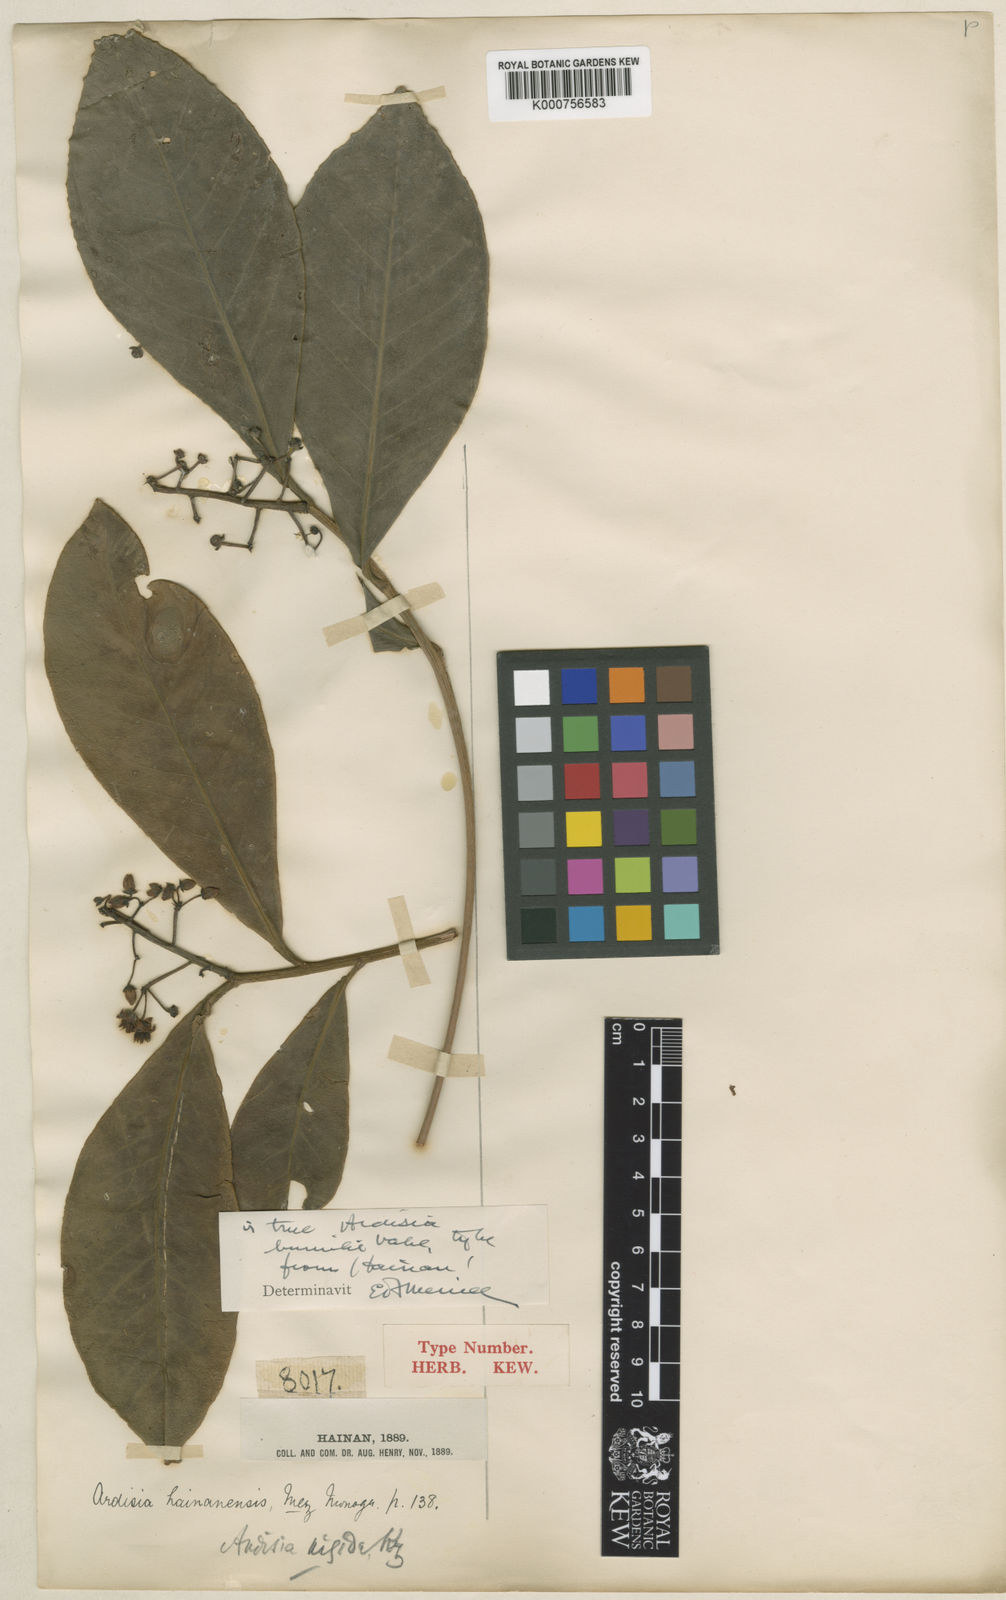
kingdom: Plantae
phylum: Tracheophyta
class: Magnoliopsida
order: Ericales
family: Primulaceae
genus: Ardisia
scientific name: Ardisia humilis
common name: Low shoebutton
